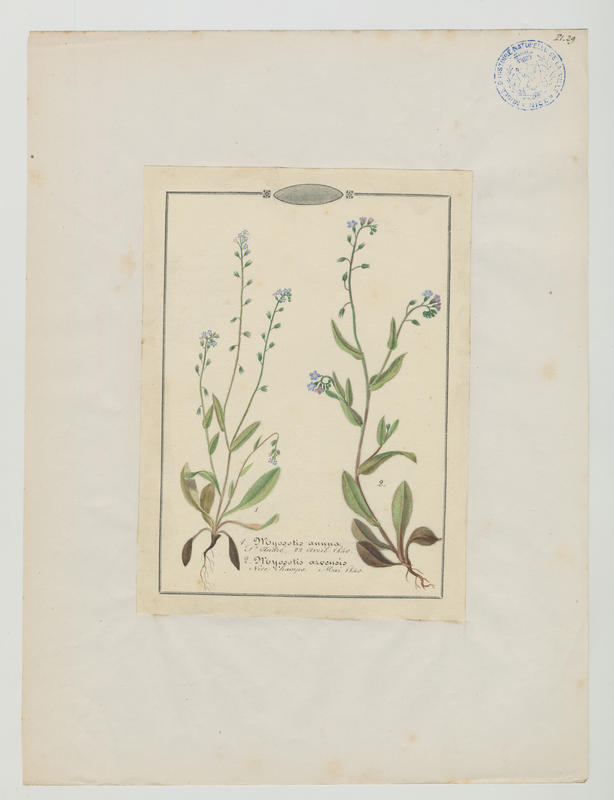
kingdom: Plantae
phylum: Tracheophyta
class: Magnoliopsida
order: Boraginales
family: Boraginaceae
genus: Myosotis
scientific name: Myosotis arvensis
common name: Field forget-me-not
